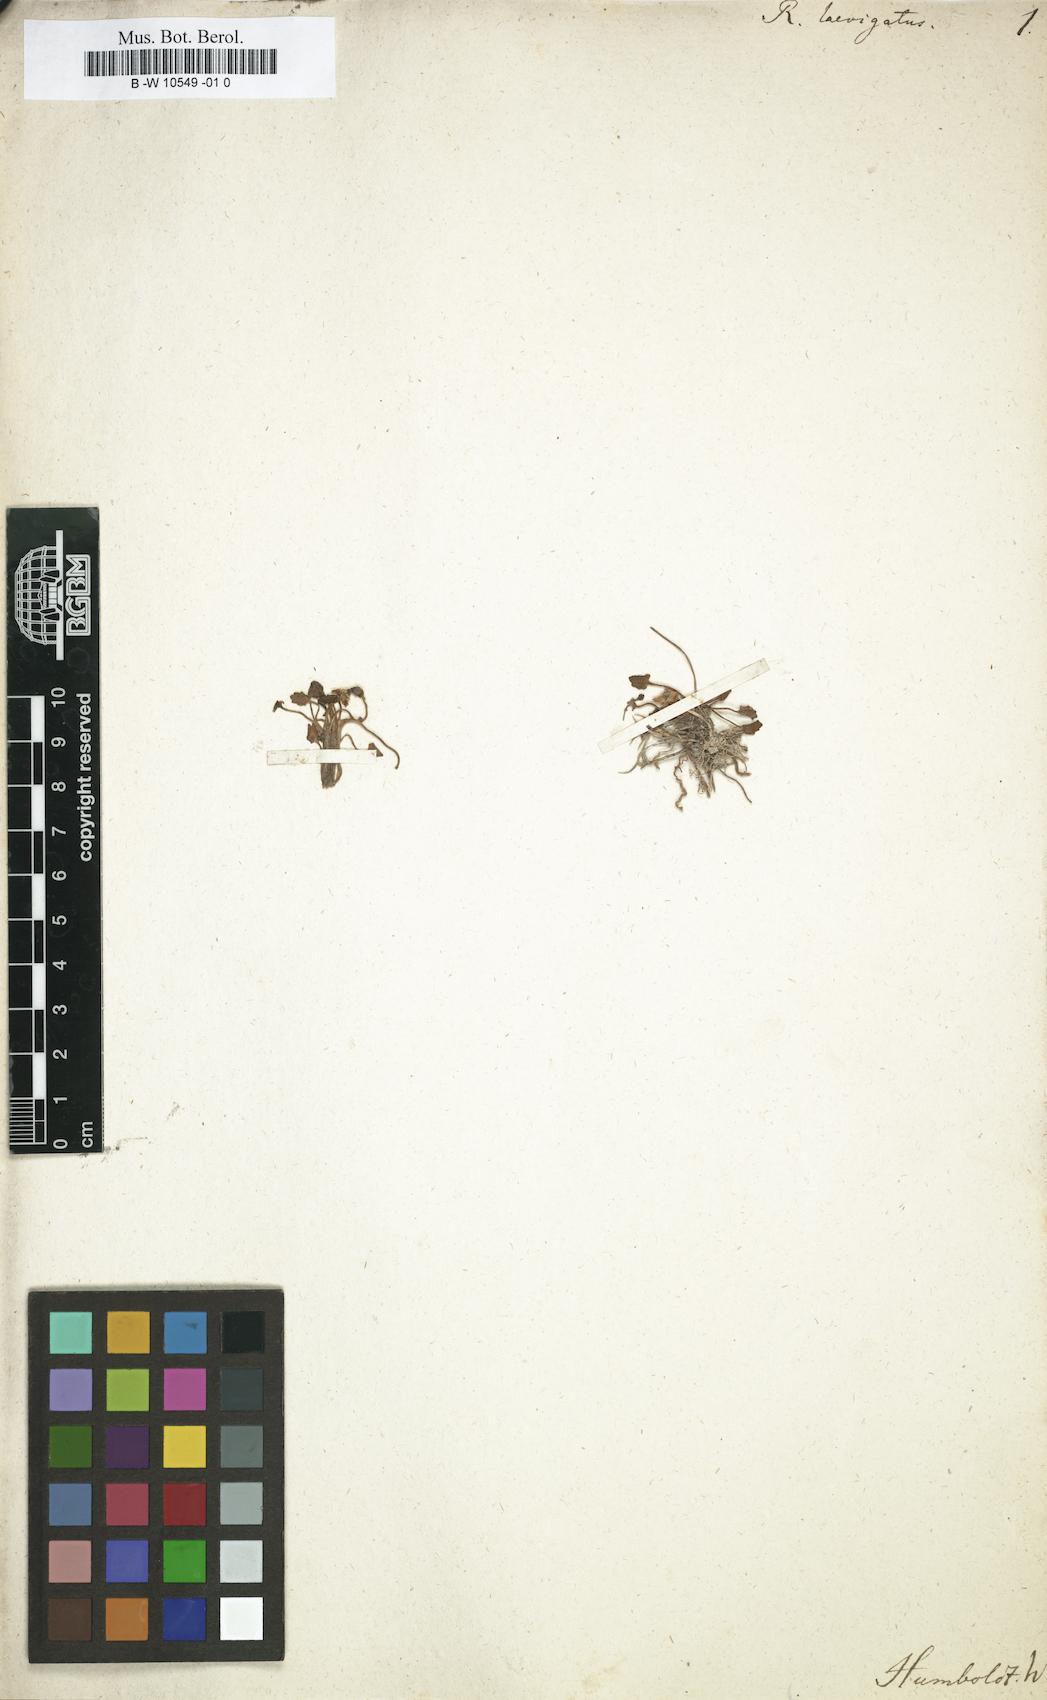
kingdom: Plantae
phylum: Tracheophyta
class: Magnoliopsida
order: Ranunculales
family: Ranunculaceae
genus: Ranunculus
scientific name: Ranunculus
